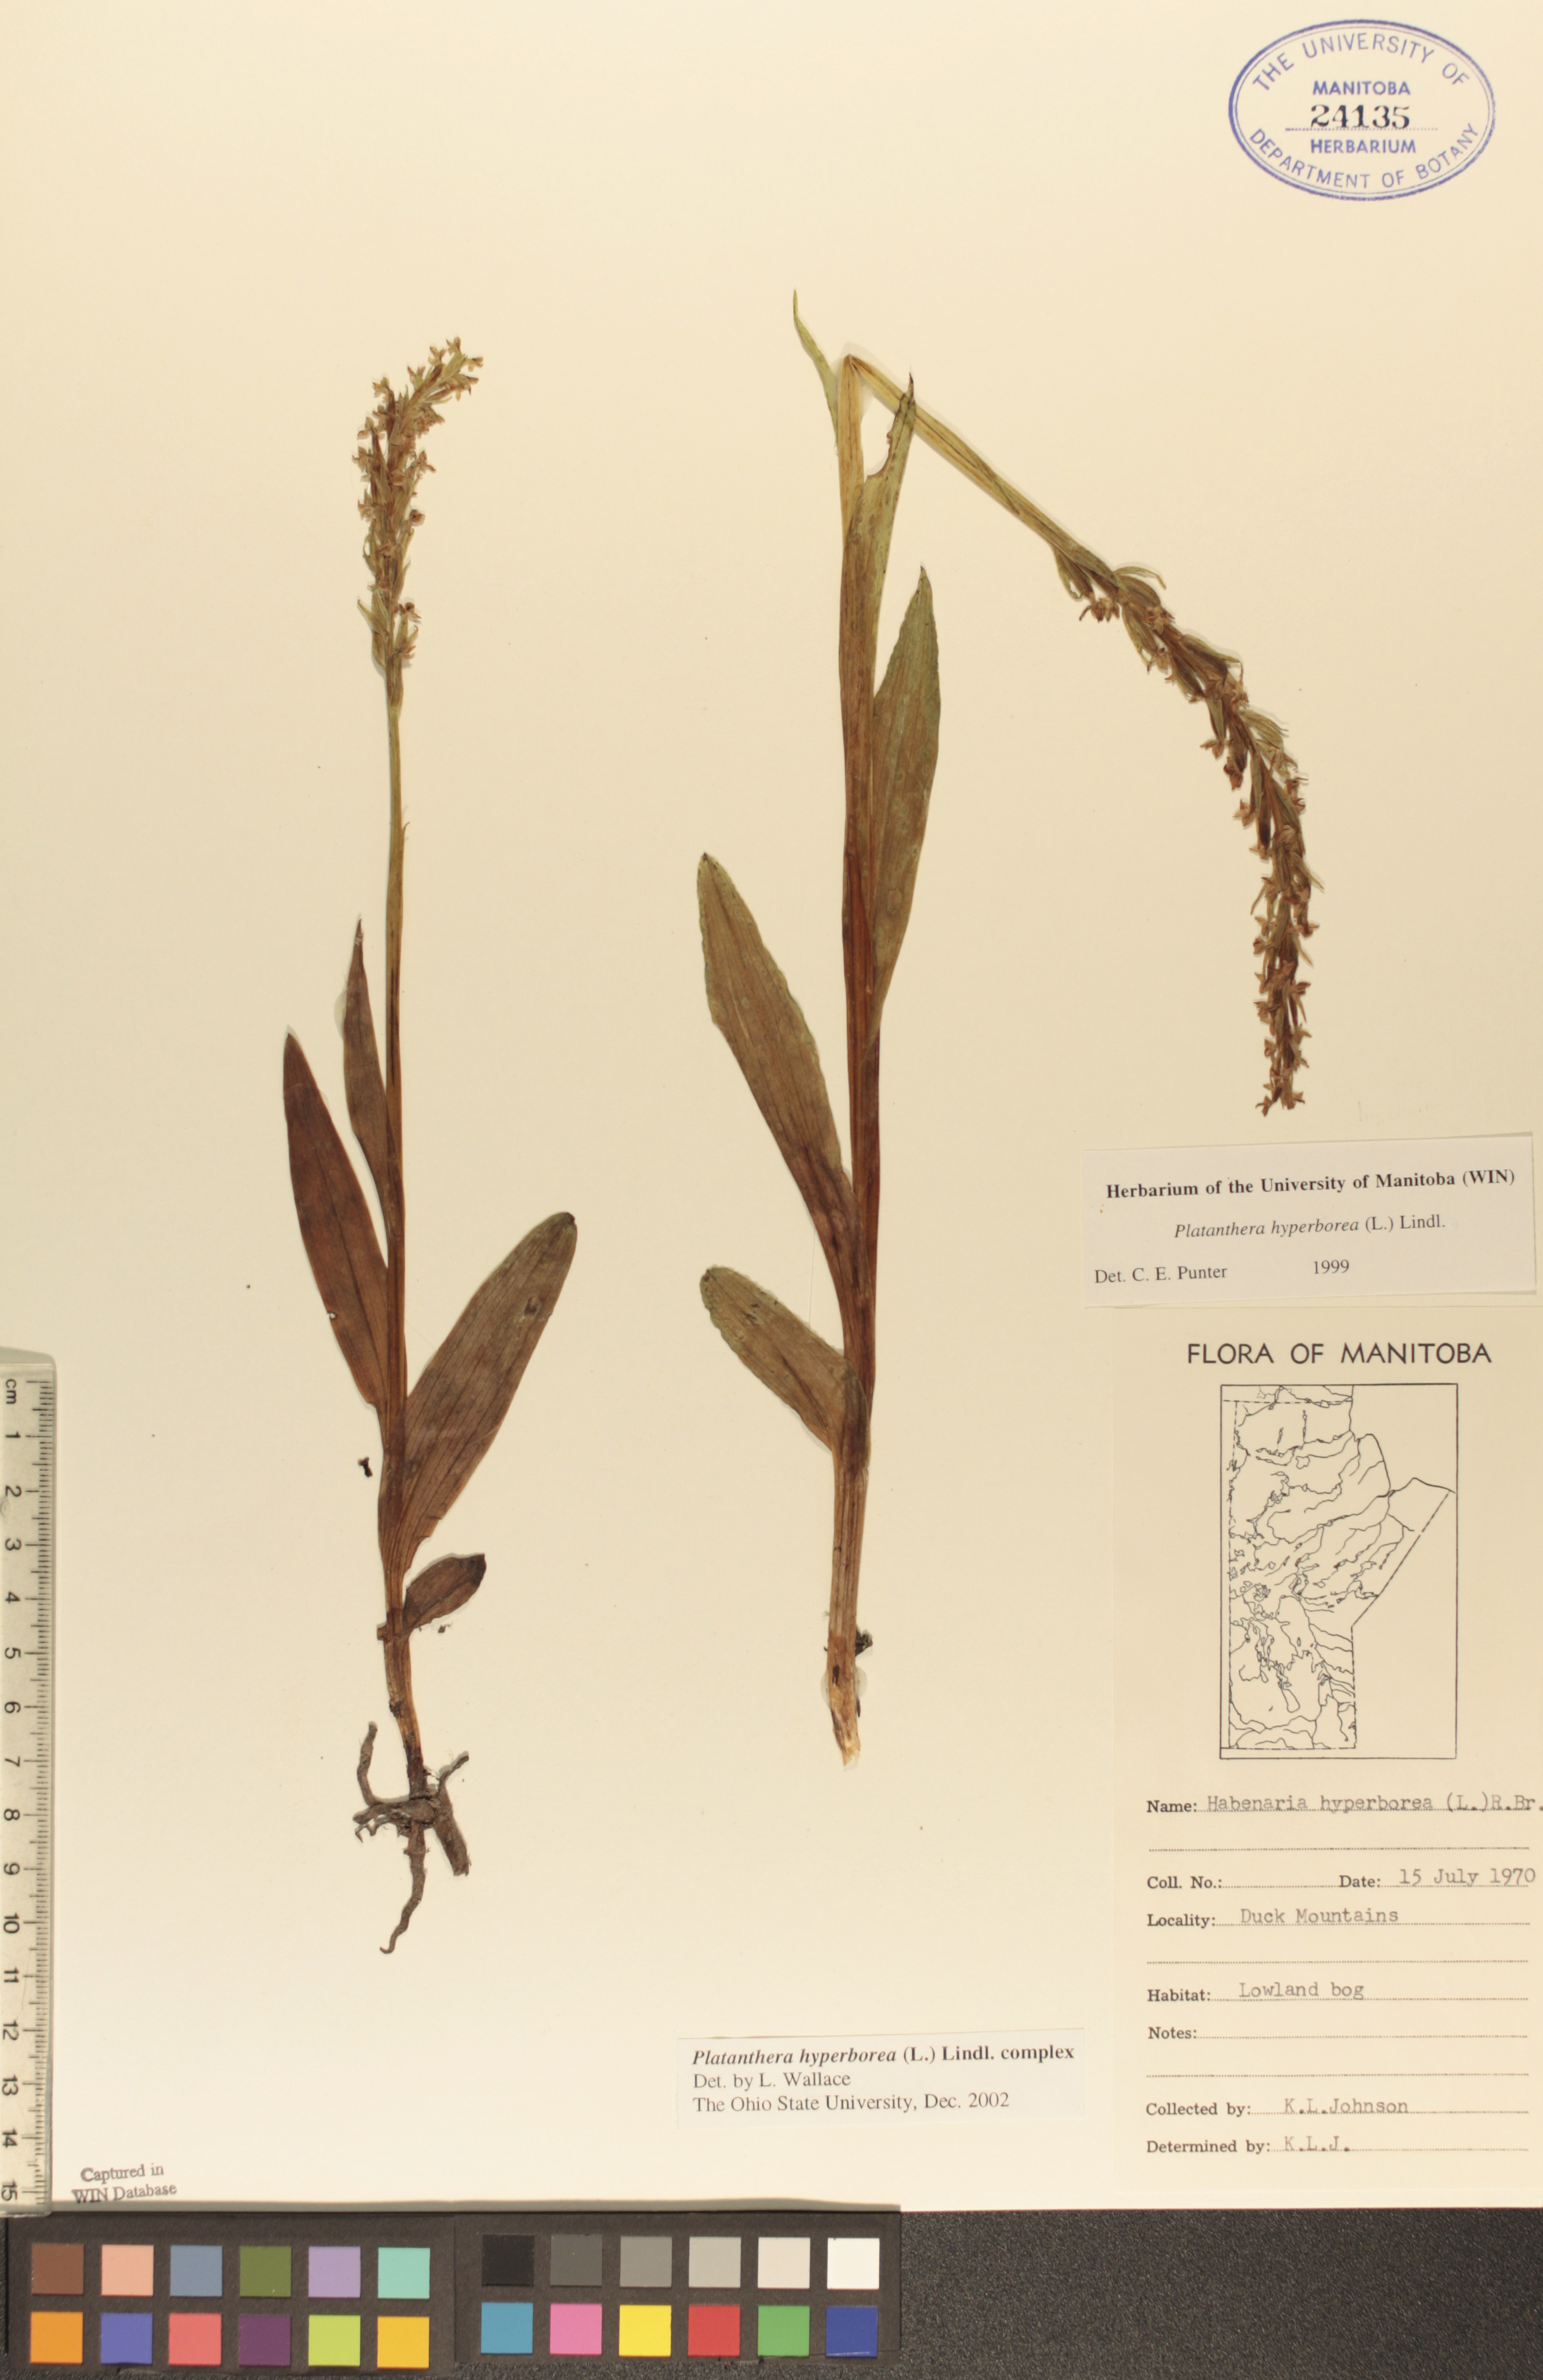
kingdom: Plantae
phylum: Tracheophyta
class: Liliopsida
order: Asparagales
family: Orchidaceae
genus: Platanthera
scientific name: Platanthera hyperborea
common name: Northern green orchid
